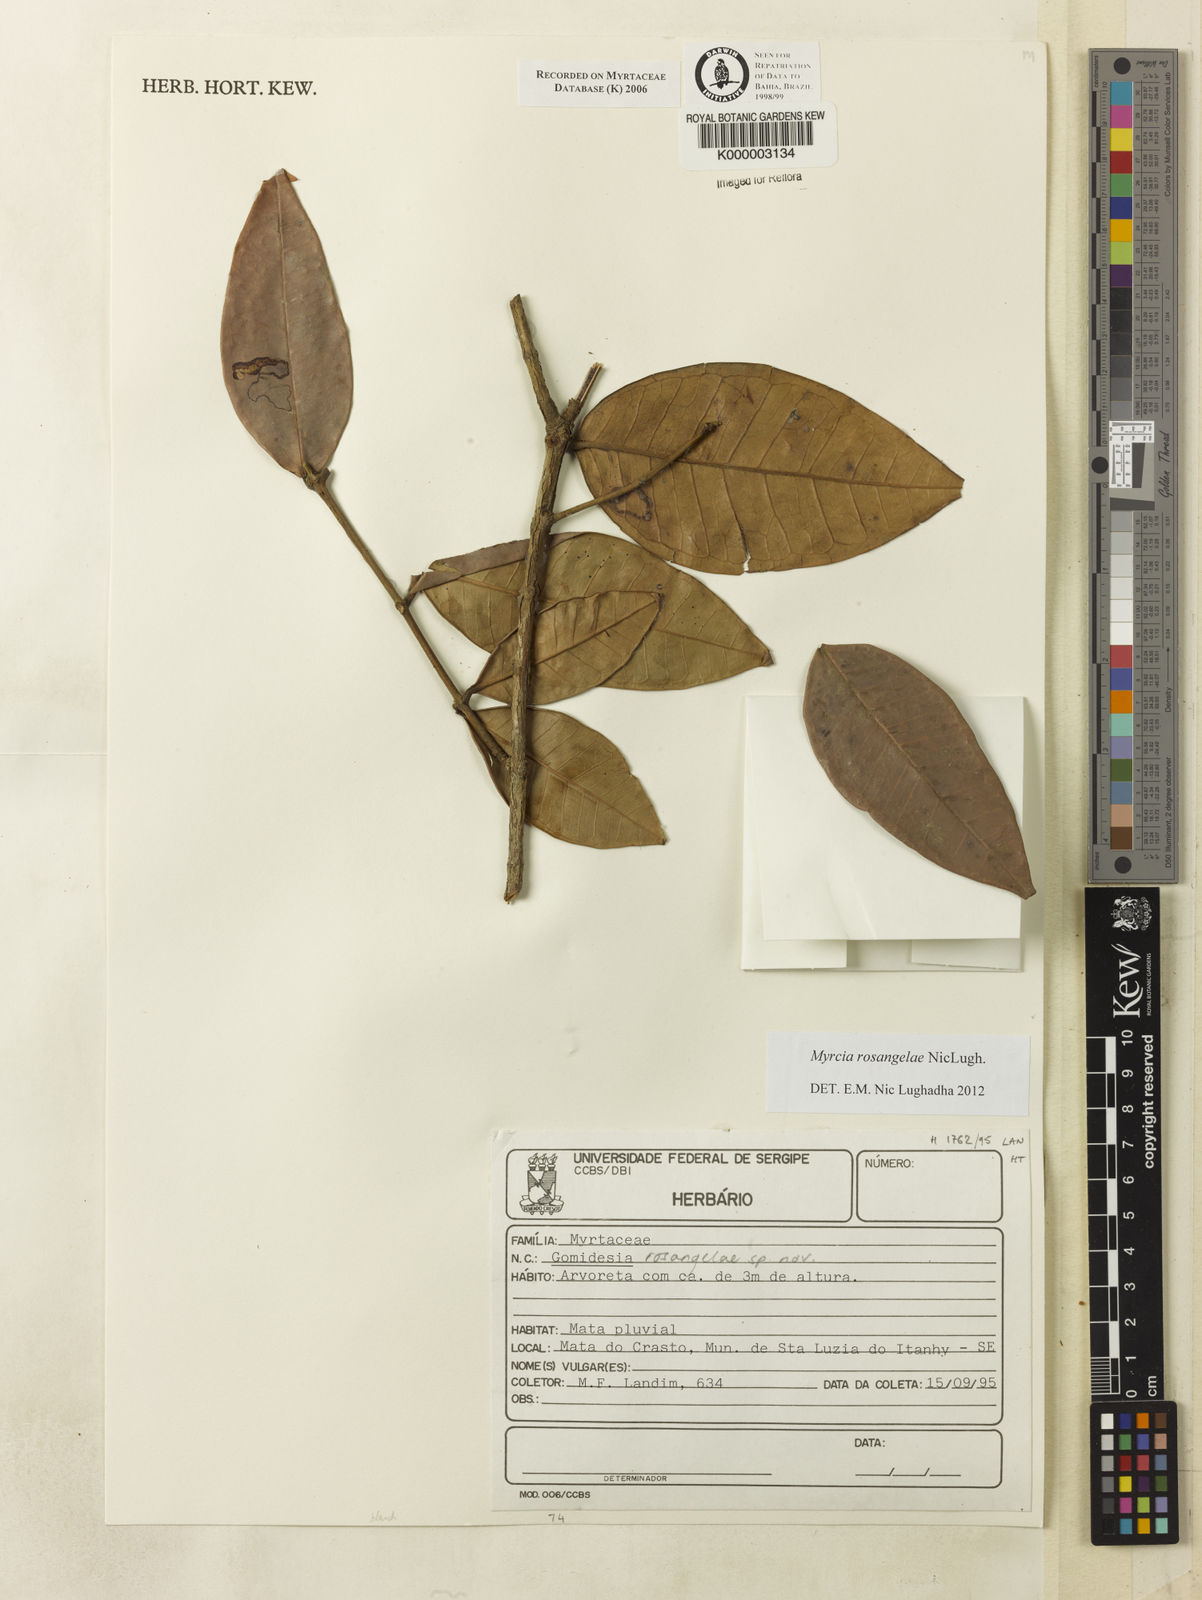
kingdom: Plantae
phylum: Tracheophyta
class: Magnoliopsida
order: Myrtales
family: Myrtaceae
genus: Myrcia
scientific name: Myrcia rosangelae
